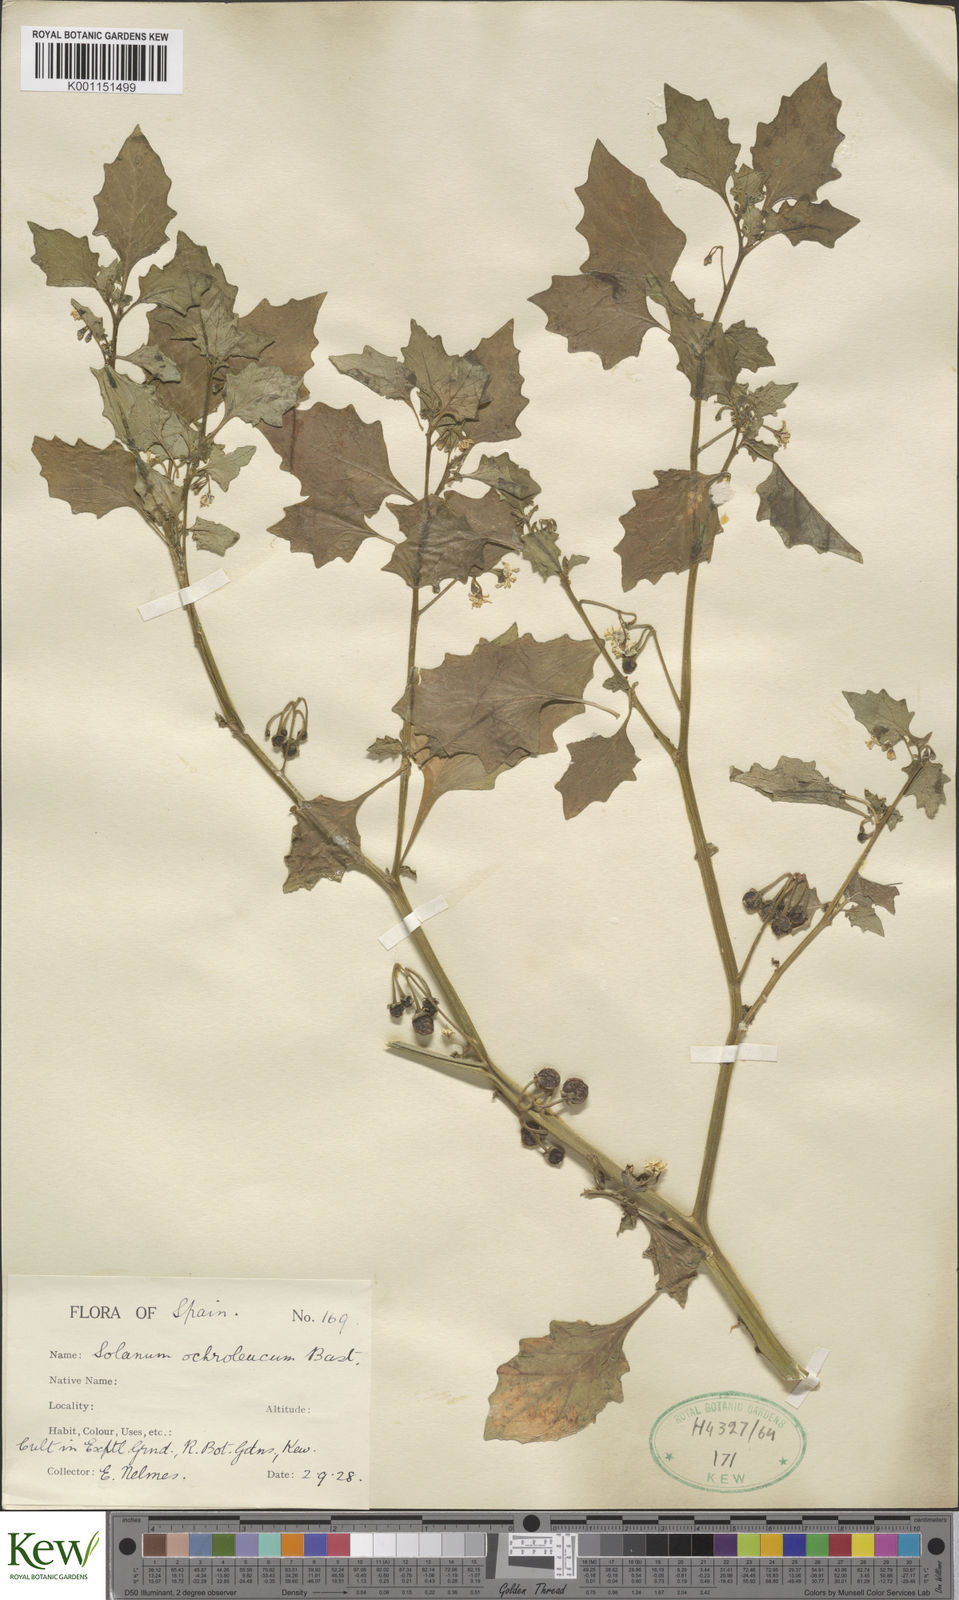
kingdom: Plantae
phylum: Tracheophyta
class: Magnoliopsida
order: Solanales
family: Solanaceae
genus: Solanum
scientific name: Solanum villosum
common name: Red nightshade
